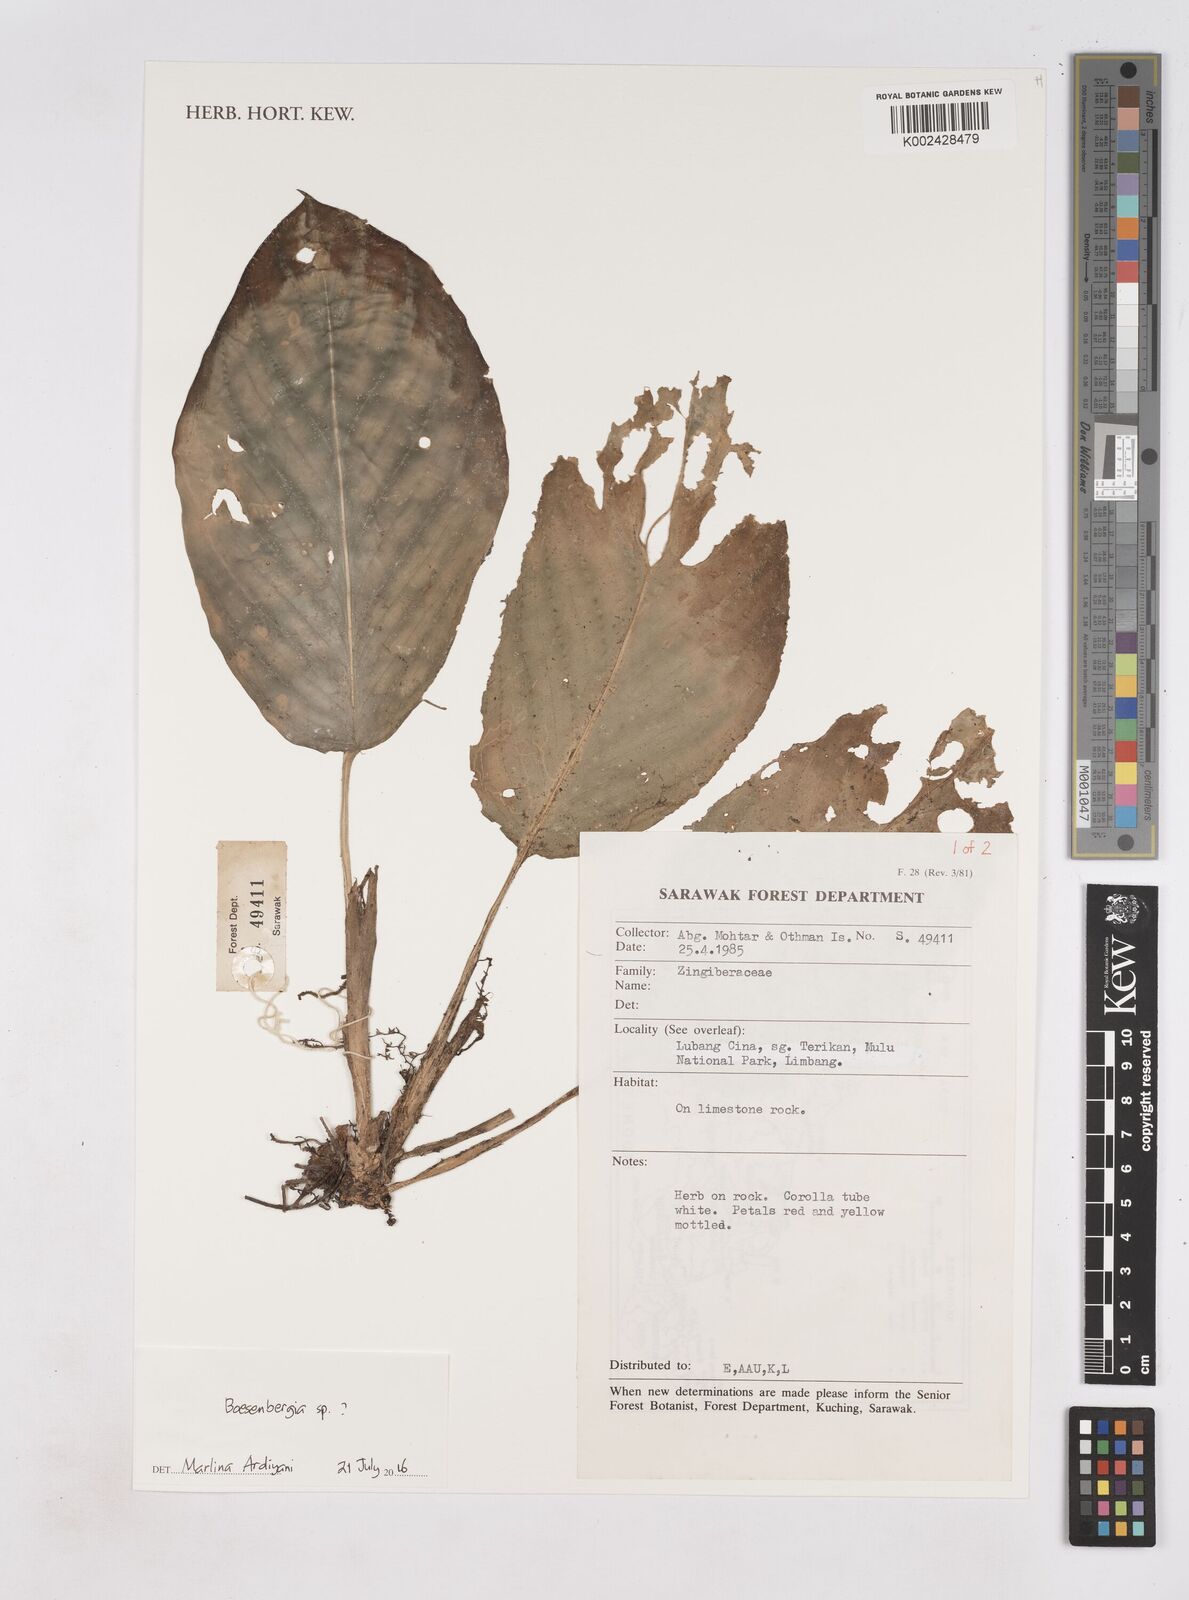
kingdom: Plantae
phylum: Tracheophyta
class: Liliopsida
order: Zingiberales
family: Zingiberaceae
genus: Boesenbergia
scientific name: Boesenbergia
